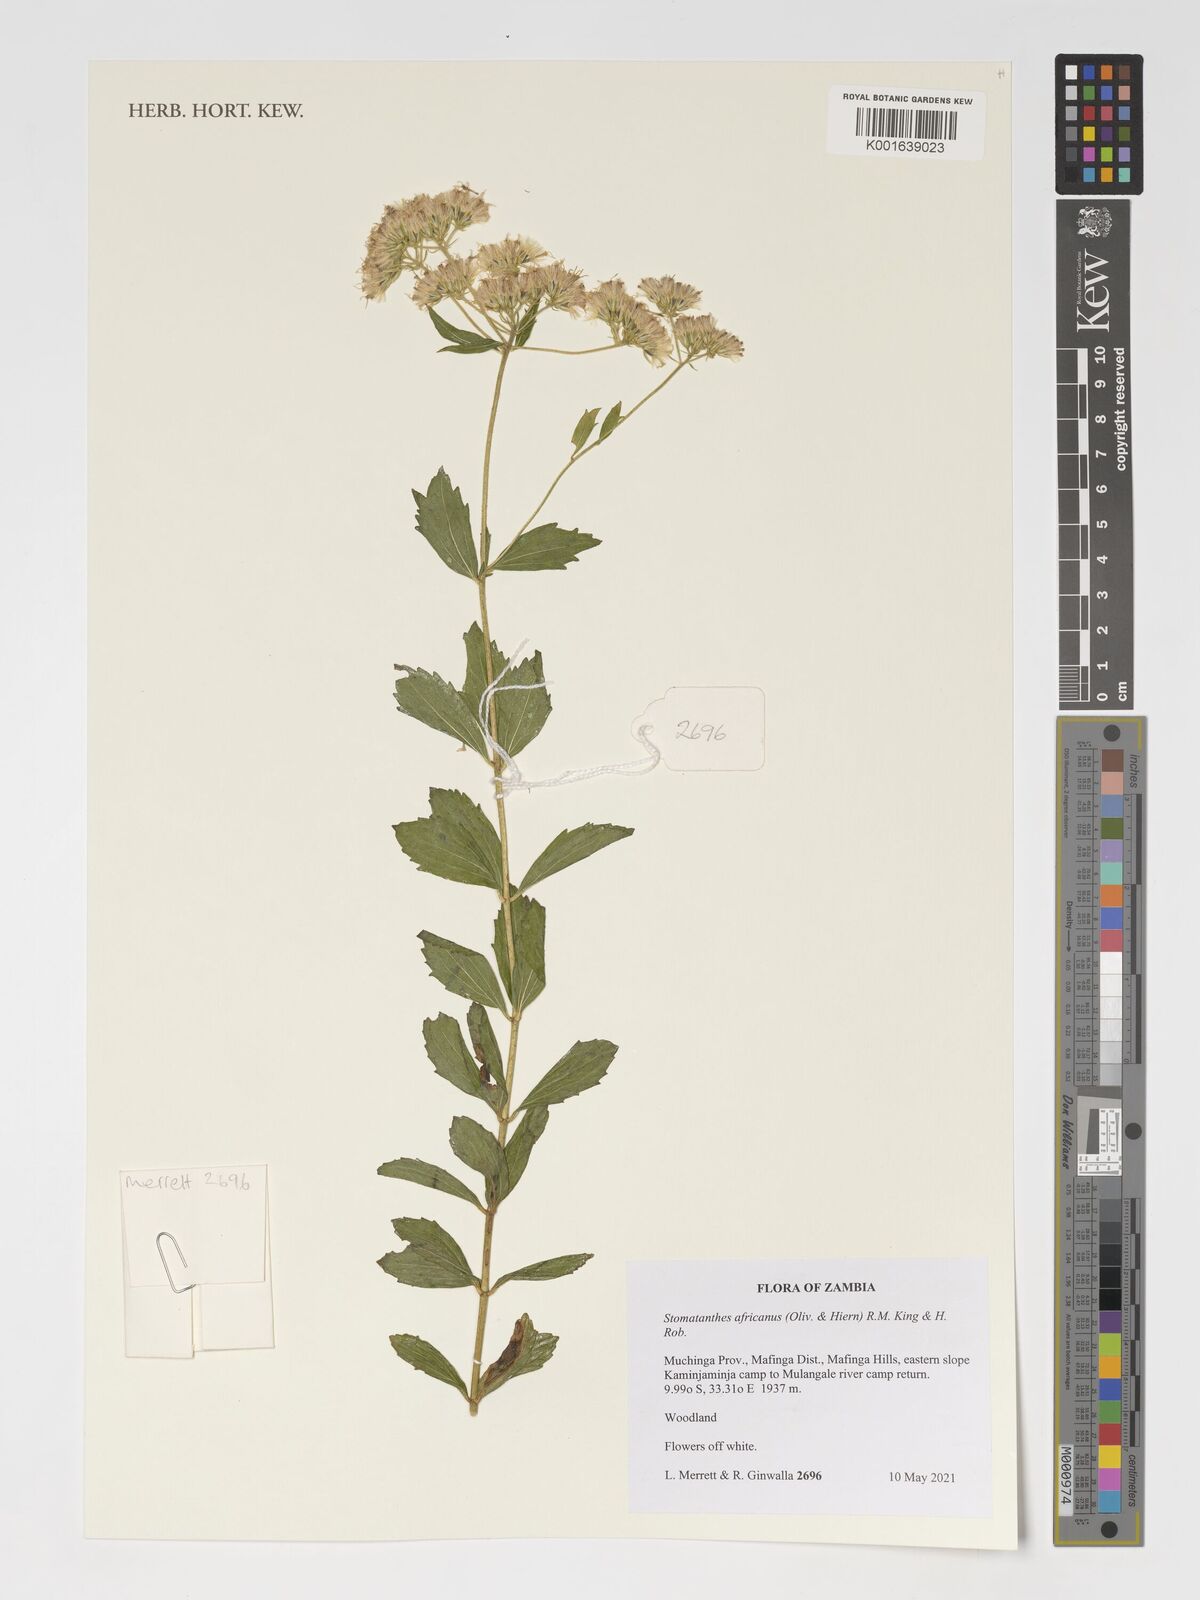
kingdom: Plantae
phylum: Tracheophyta
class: Magnoliopsida
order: Asterales
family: Asteraceae
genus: Stomatanthes
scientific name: Stomatanthes africanus
